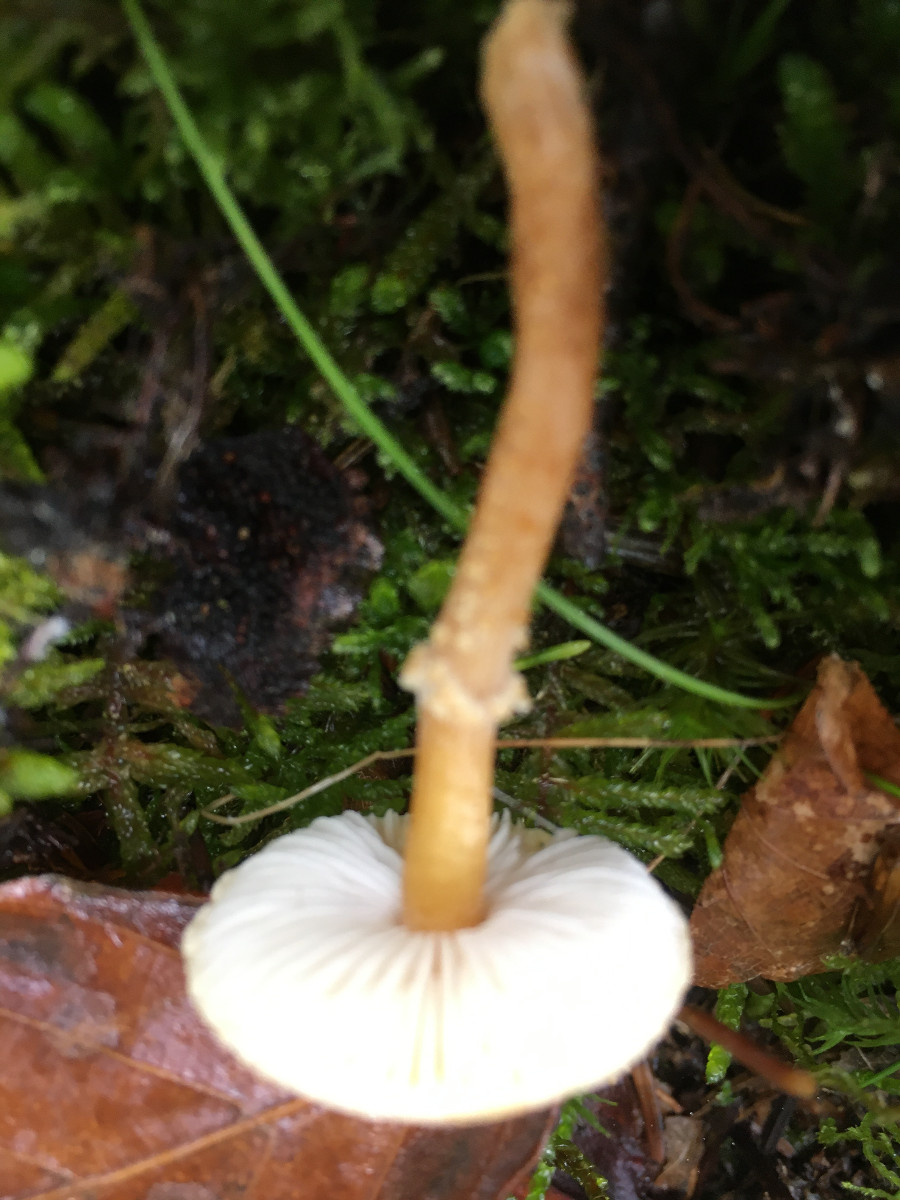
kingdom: Fungi
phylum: Basidiomycota
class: Agaricomycetes
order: Agaricales
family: Tricholomataceae
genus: Cystoderma
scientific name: Cystoderma amianthinum
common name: okkergul grynhat
